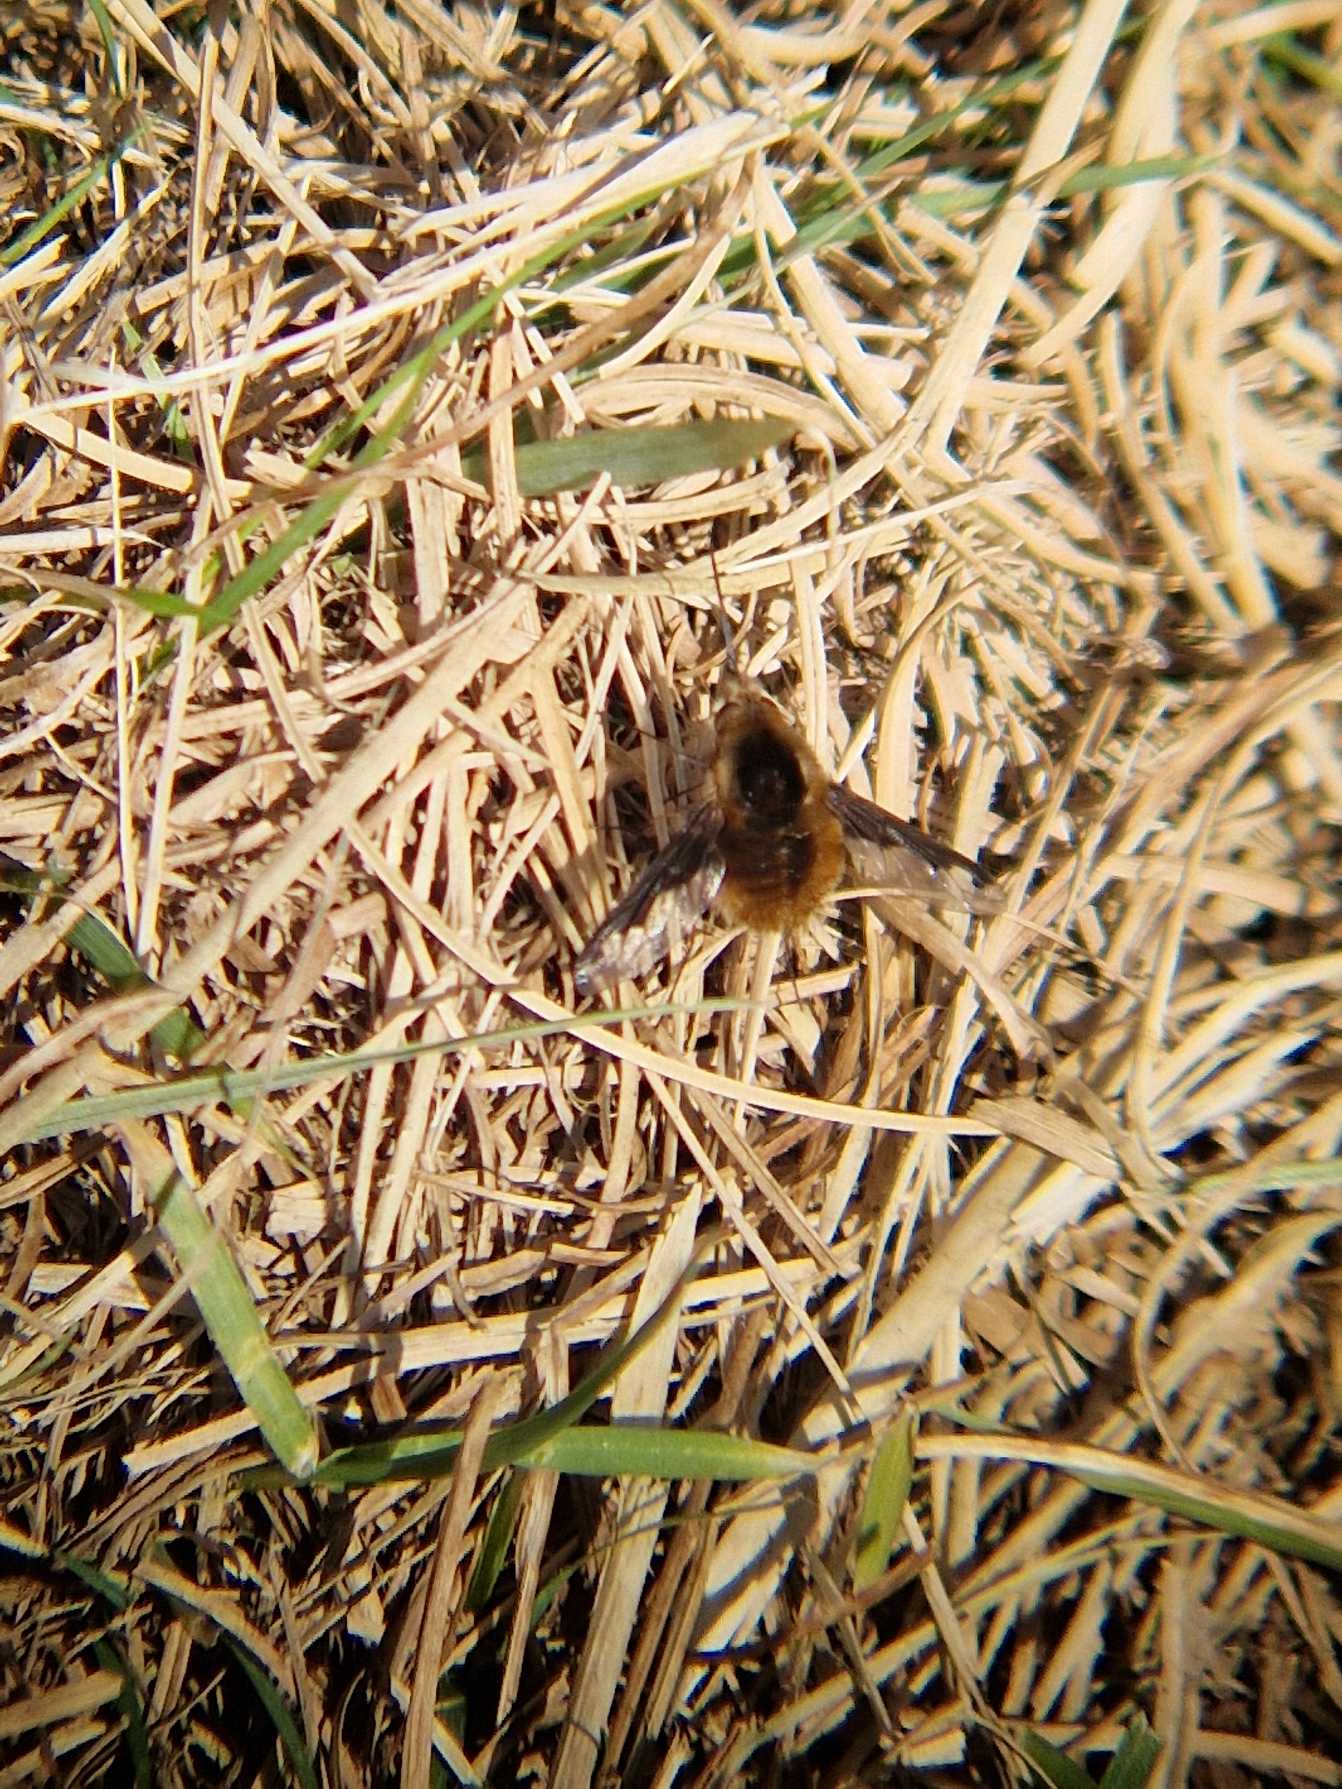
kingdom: Animalia
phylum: Arthropoda
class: Insecta
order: Diptera
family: Bombyliidae
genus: Bombylius
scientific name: Bombylius major
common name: Stor humleflue
